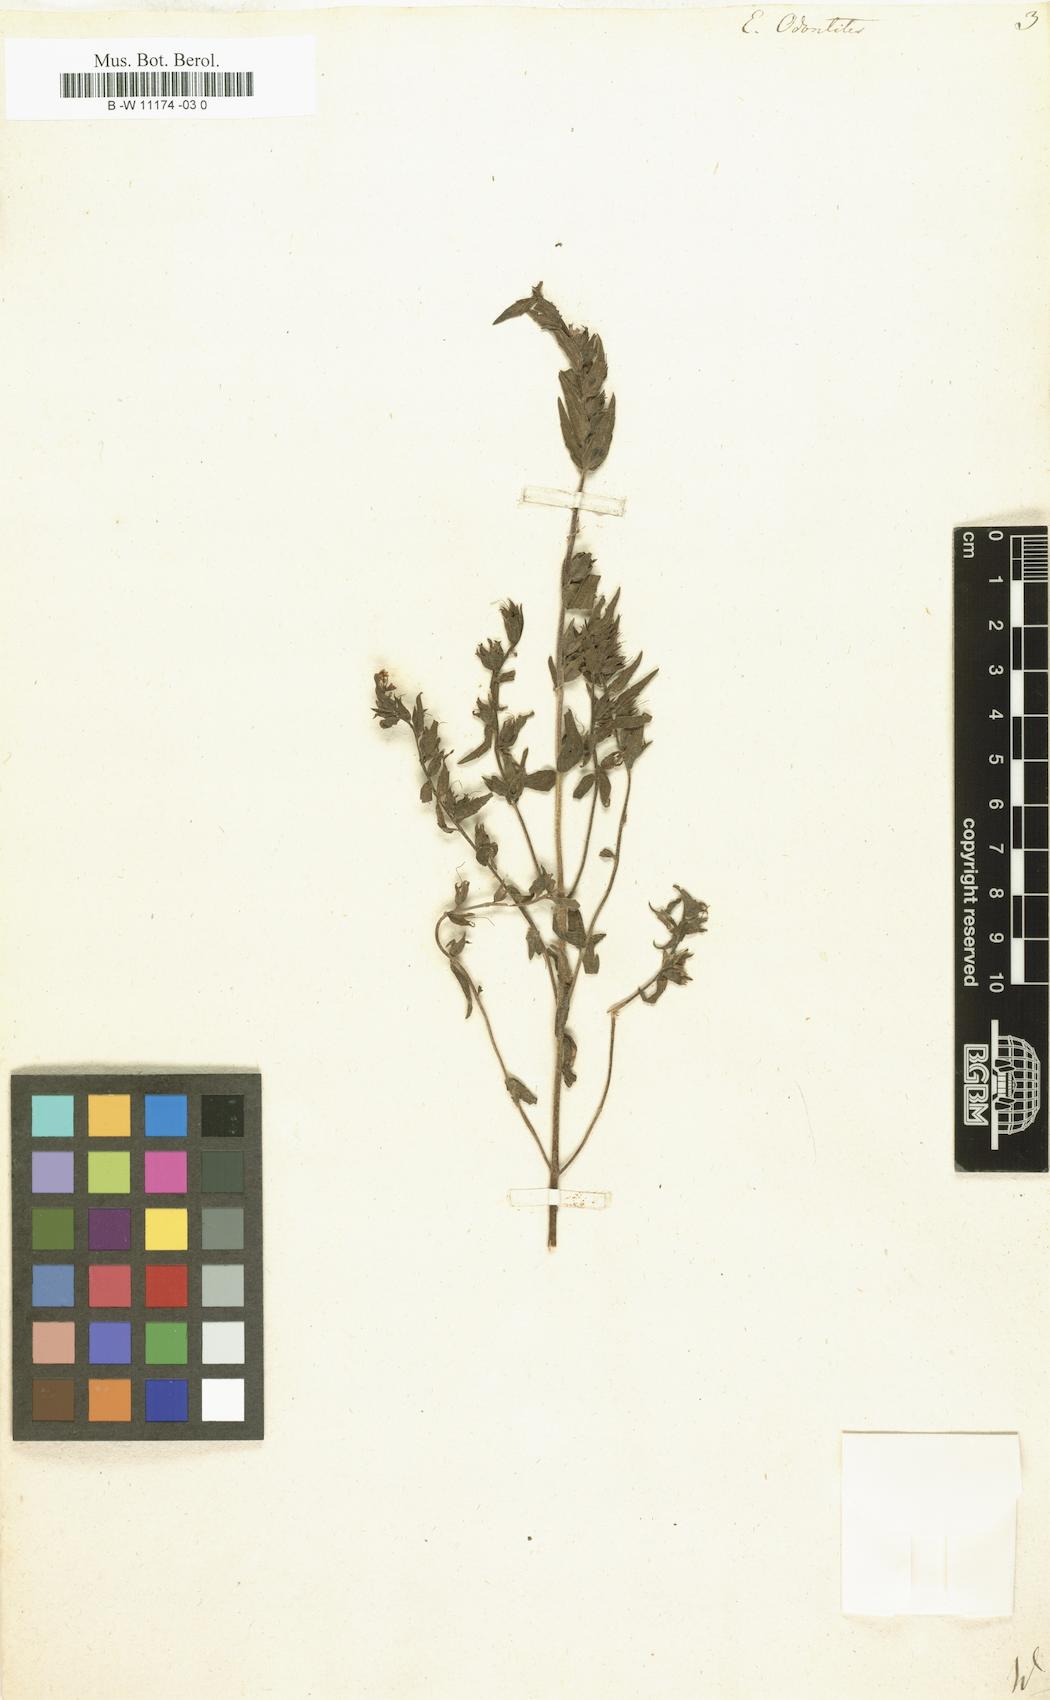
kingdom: Plantae
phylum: Tracheophyta
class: Magnoliopsida
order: Lamiales
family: Orobanchaceae
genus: Odontites
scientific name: Odontites vulgaris
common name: Broomrape
